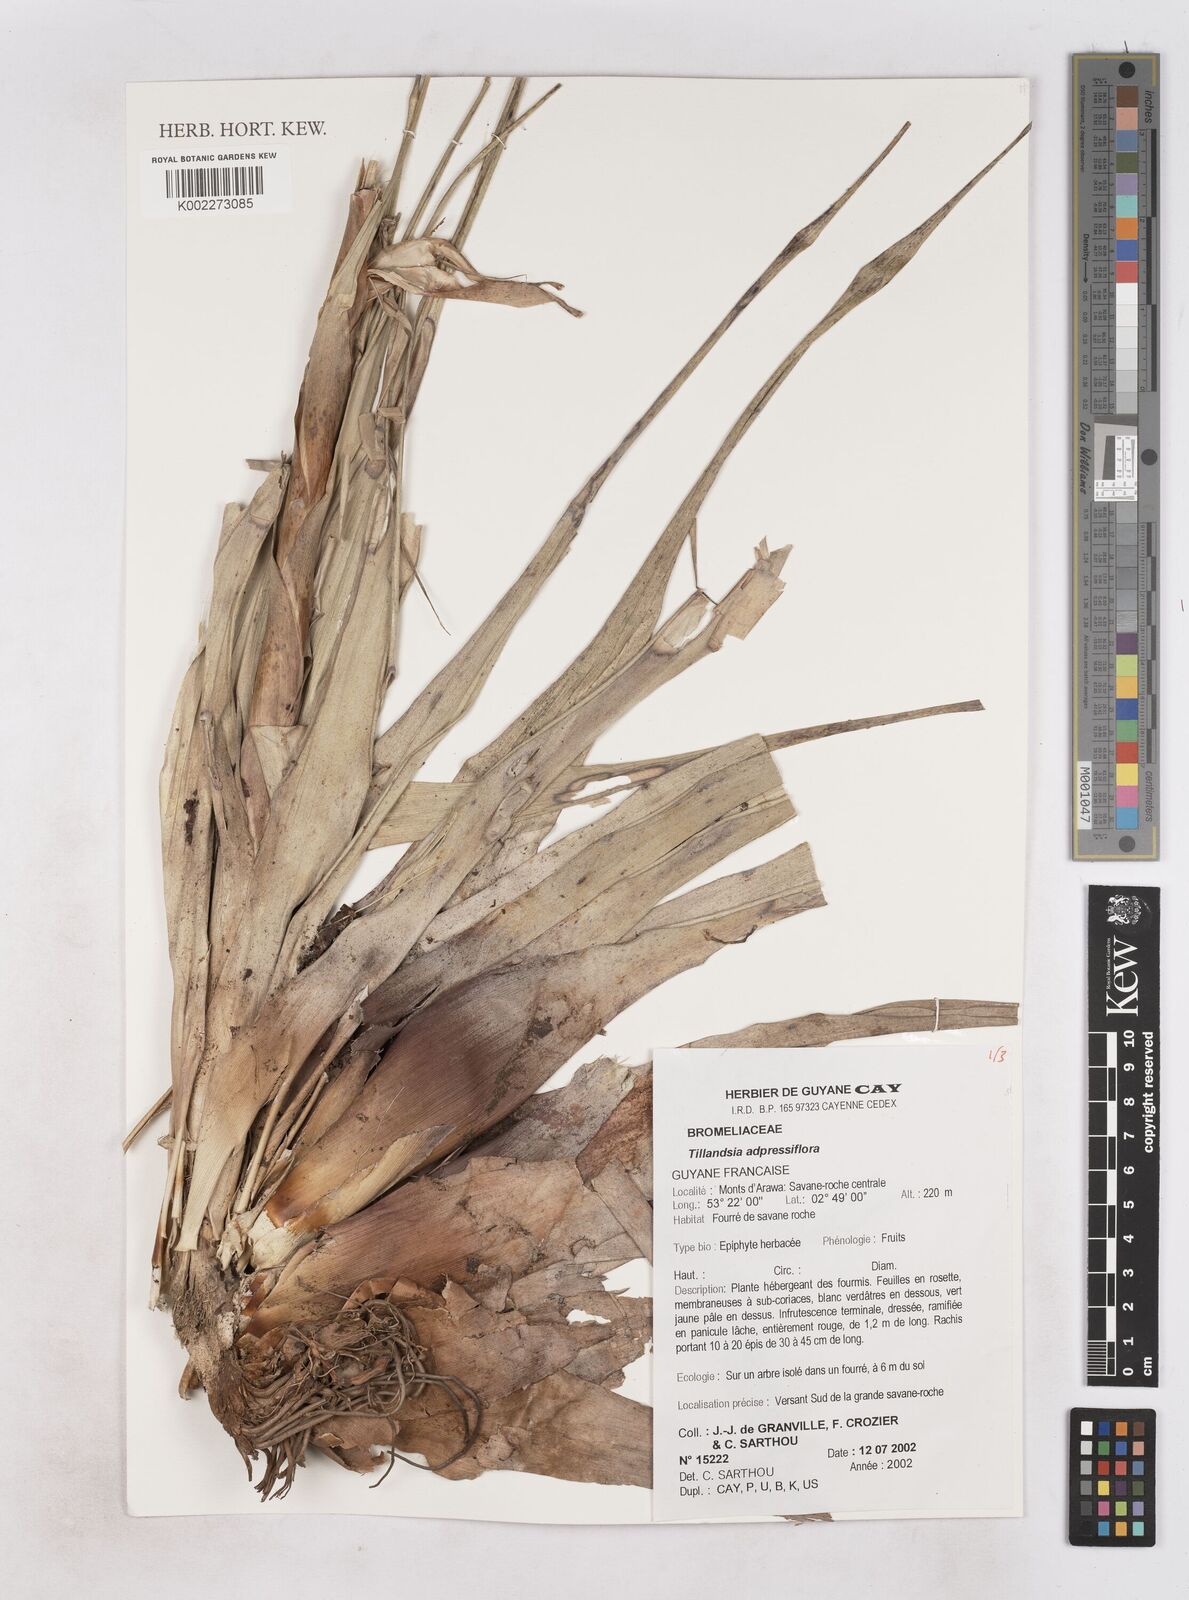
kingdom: Plantae
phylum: Tracheophyta
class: Liliopsida
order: Poales
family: Bromeliaceae
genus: Tillandsia
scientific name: Tillandsia
